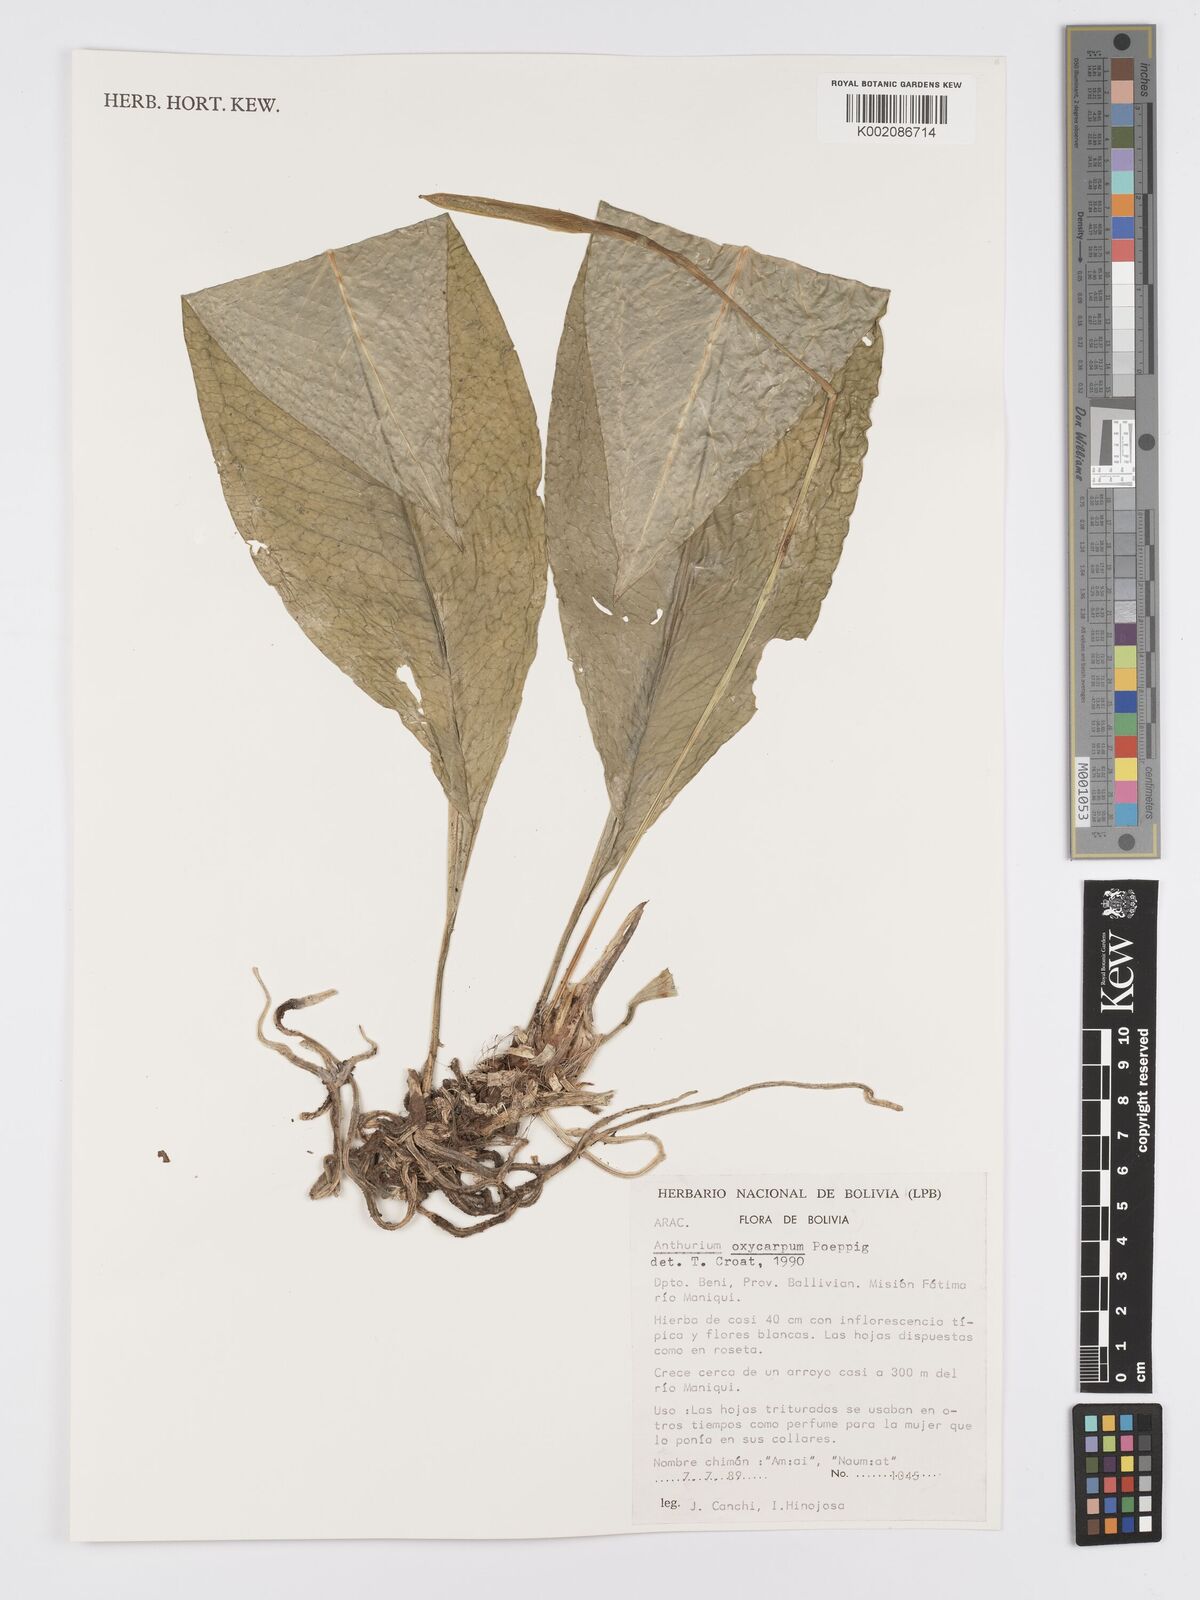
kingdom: Plantae
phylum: Tracheophyta
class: Liliopsida
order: Alismatales
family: Araceae
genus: Anthurium
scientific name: Anthurium oxycarpum
